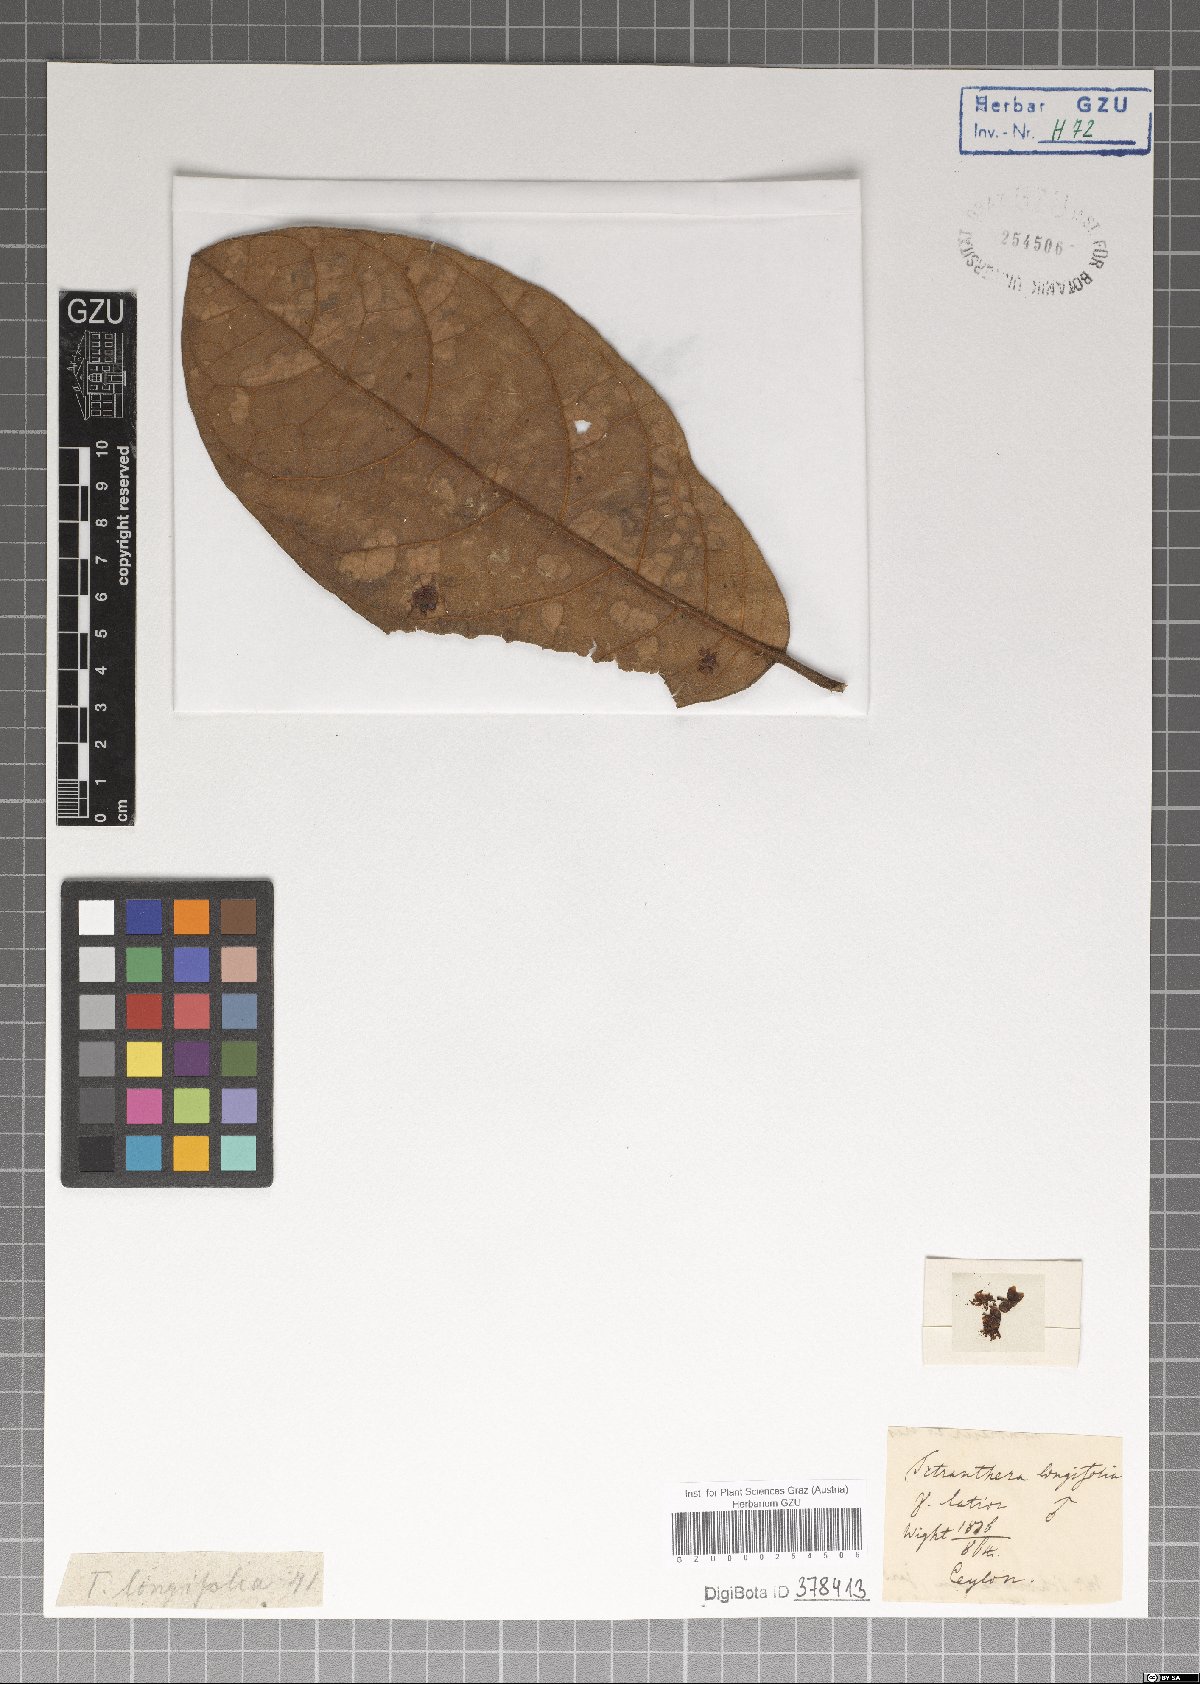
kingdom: Plantae
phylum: Tracheophyta
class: Magnoliopsida
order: Laurales
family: Lauraceae
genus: Litsea
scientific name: Litsea ligustrina
